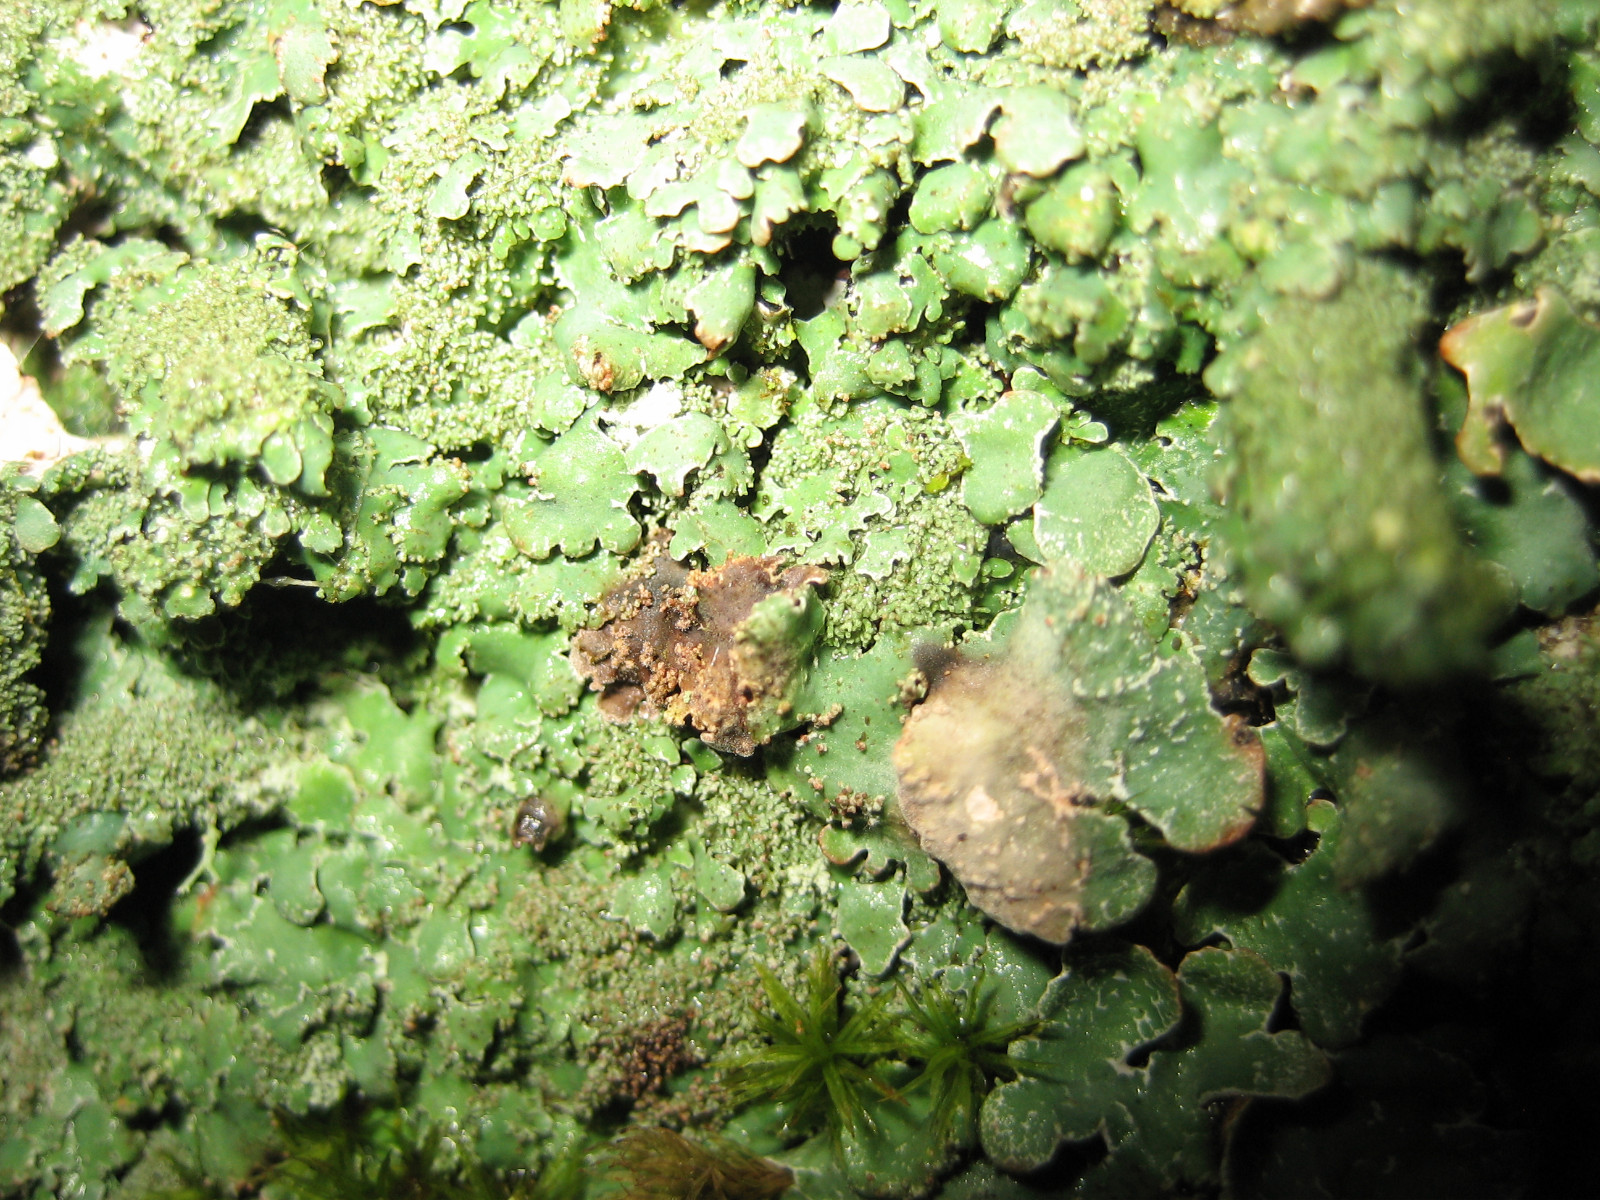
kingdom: Fungi
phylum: Ascomycota
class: Lecanoromycetes
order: Lecanorales
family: Parmeliaceae
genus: Parmelia
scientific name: Parmelia saxatilis
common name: farve-skållav
